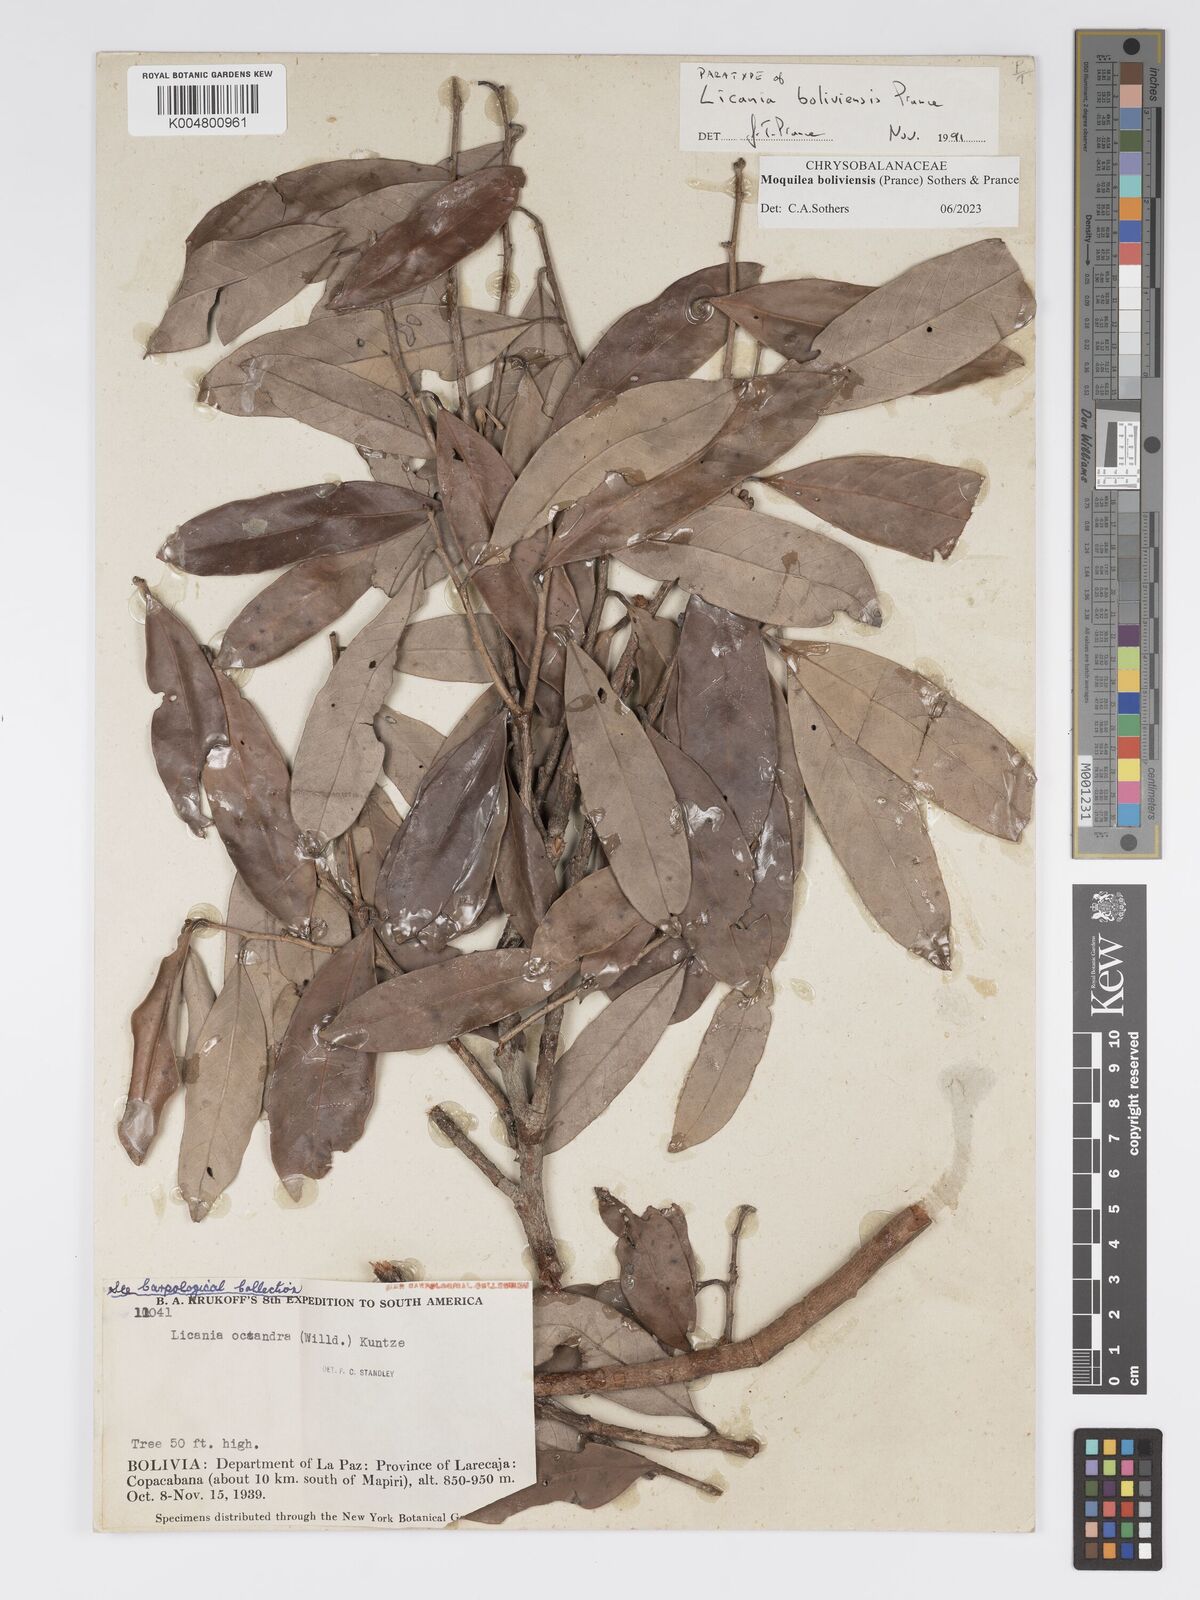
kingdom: Plantae
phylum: Tracheophyta
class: Magnoliopsida
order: Malpighiales
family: Chrysobalanaceae
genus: Moquilea
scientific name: Moquilea boliviensis
